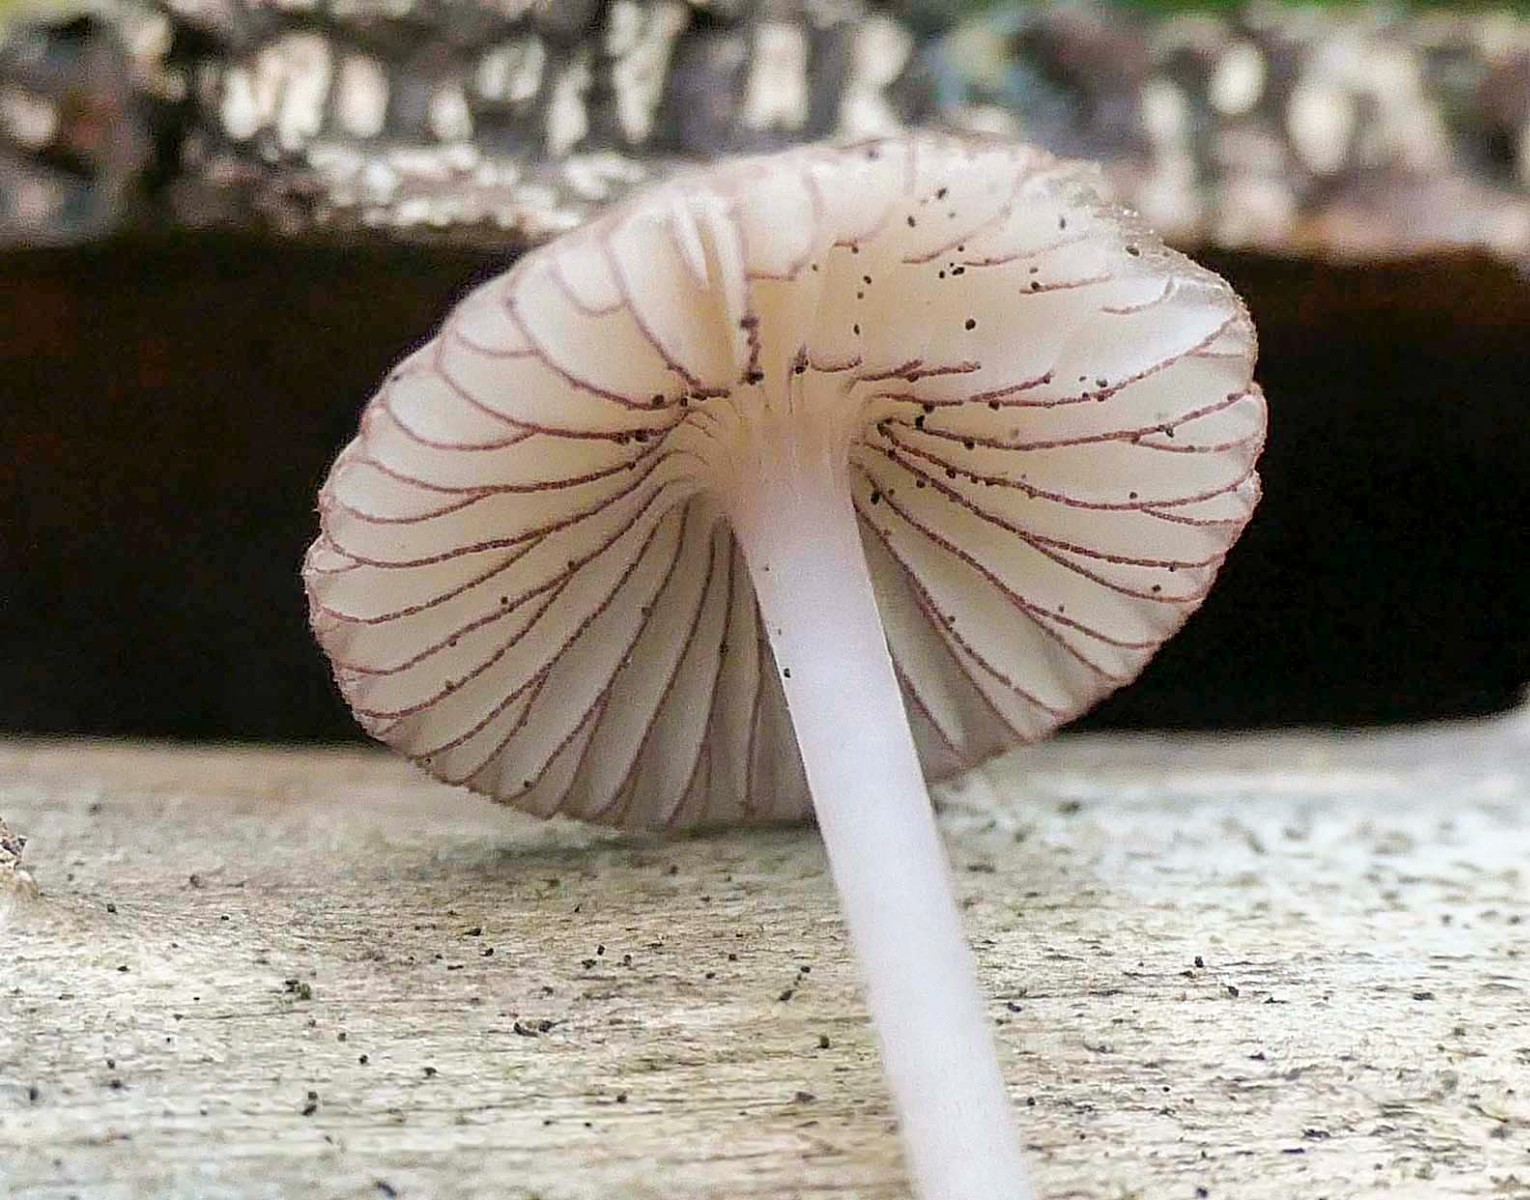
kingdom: Fungi
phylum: Basidiomycota
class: Agaricomycetes
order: Agaricales
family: Mycenaceae
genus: Mycena
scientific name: Mycena rubromarginata
